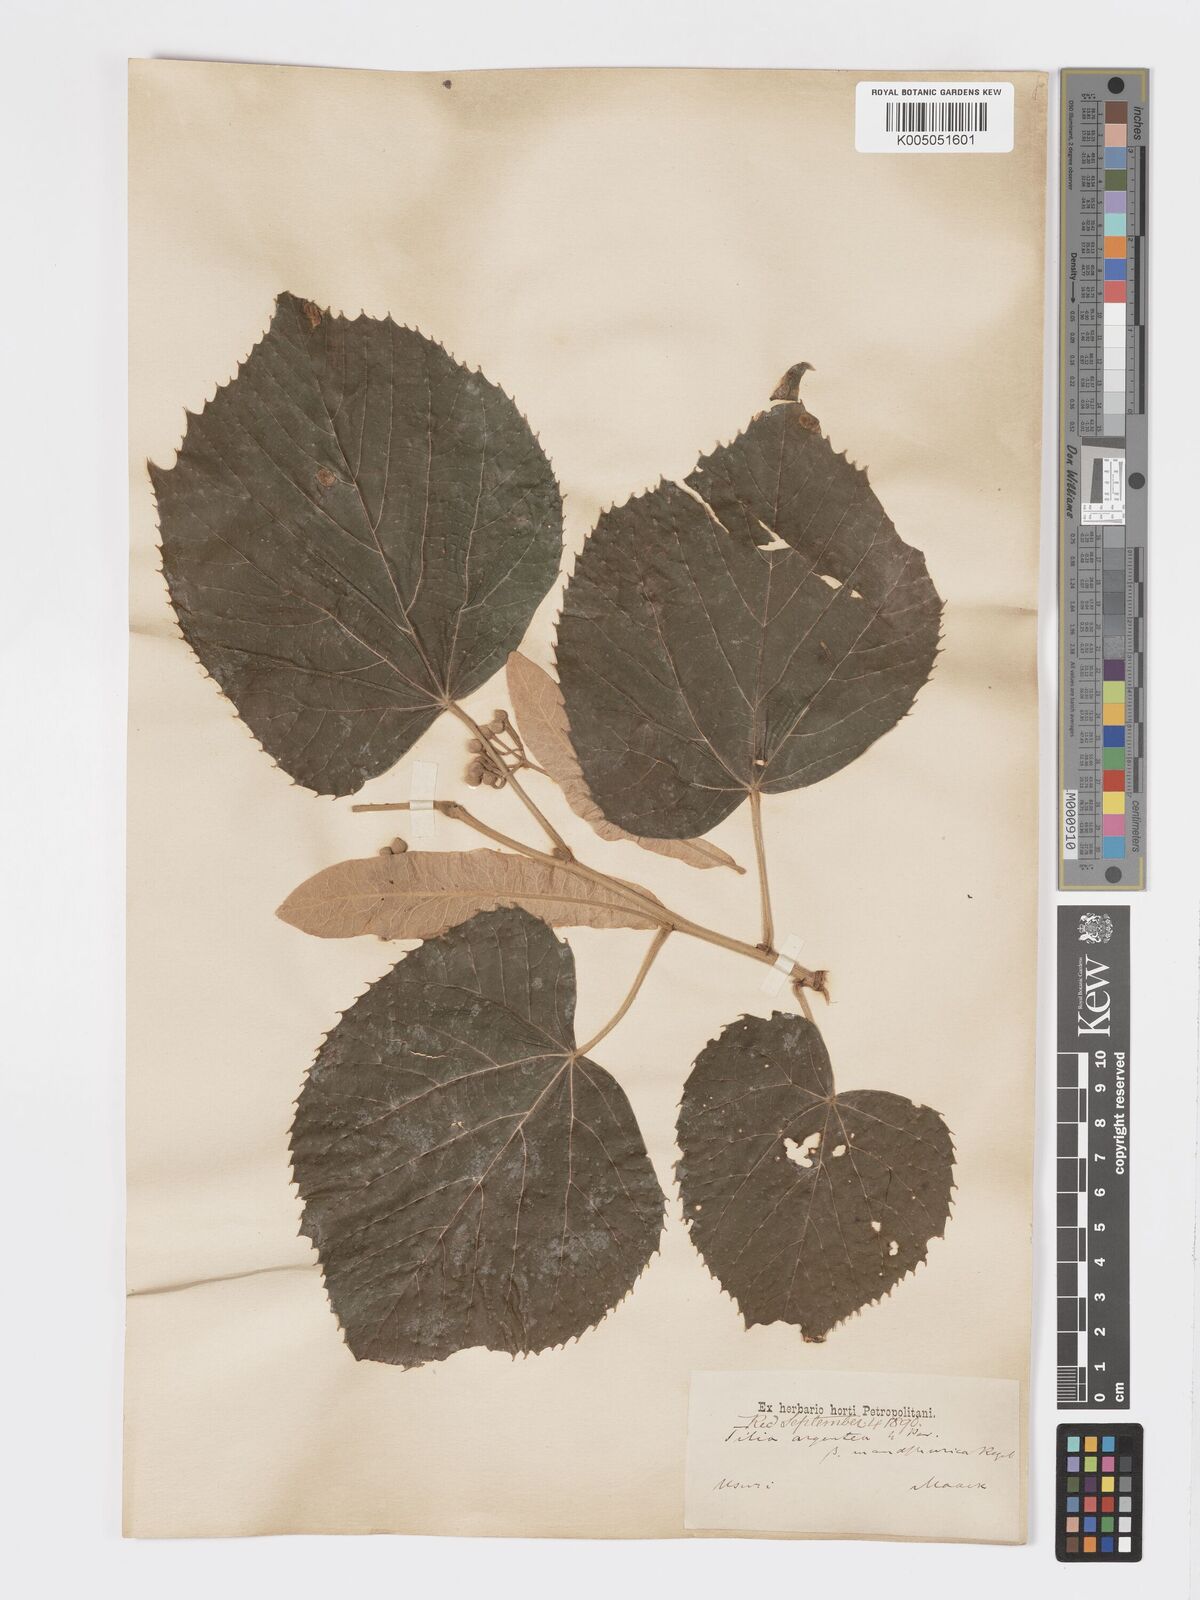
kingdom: Plantae
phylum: Tracheophyta
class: Magnoliopsida
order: Malvales
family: Malvaceae
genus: Tilia
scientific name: Tilia mandshurica
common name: Manchurian linden
